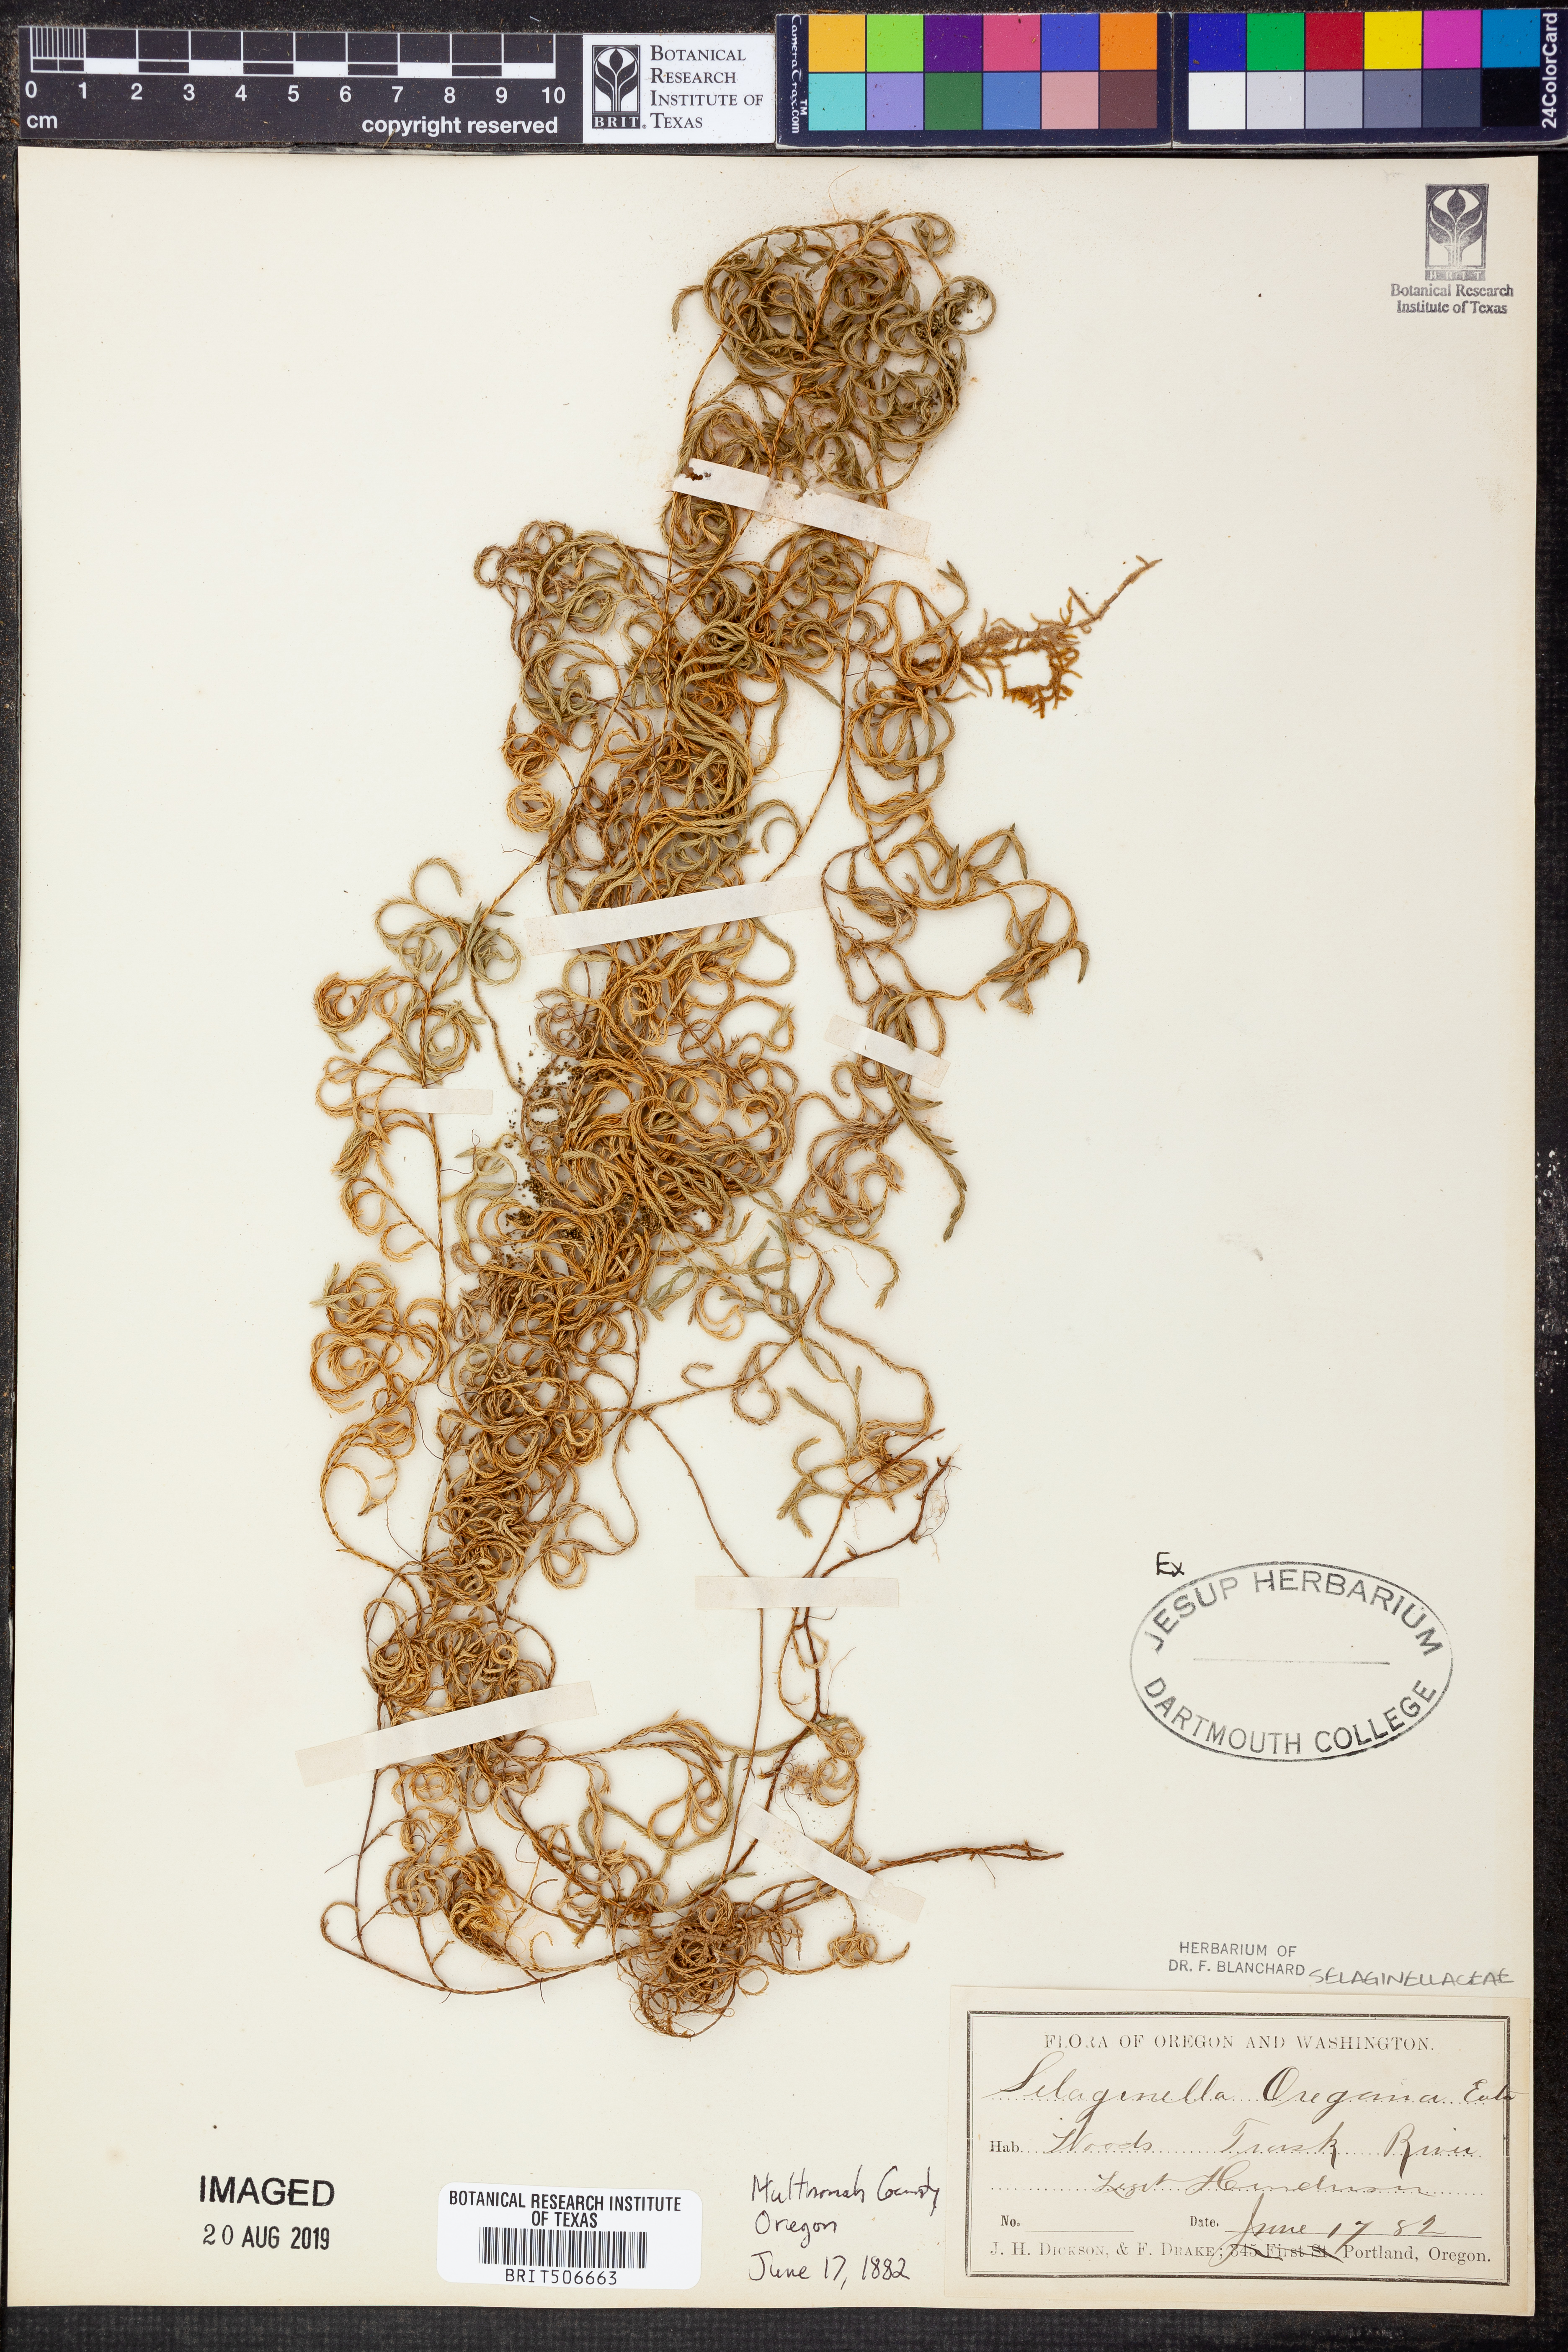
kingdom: Plantae
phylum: Tracheophyta
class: Lycopodiopsida
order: Selaginellales
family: Selaginellaceae
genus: Selaginella
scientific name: Selaginella oregana
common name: Oregon selaginella
